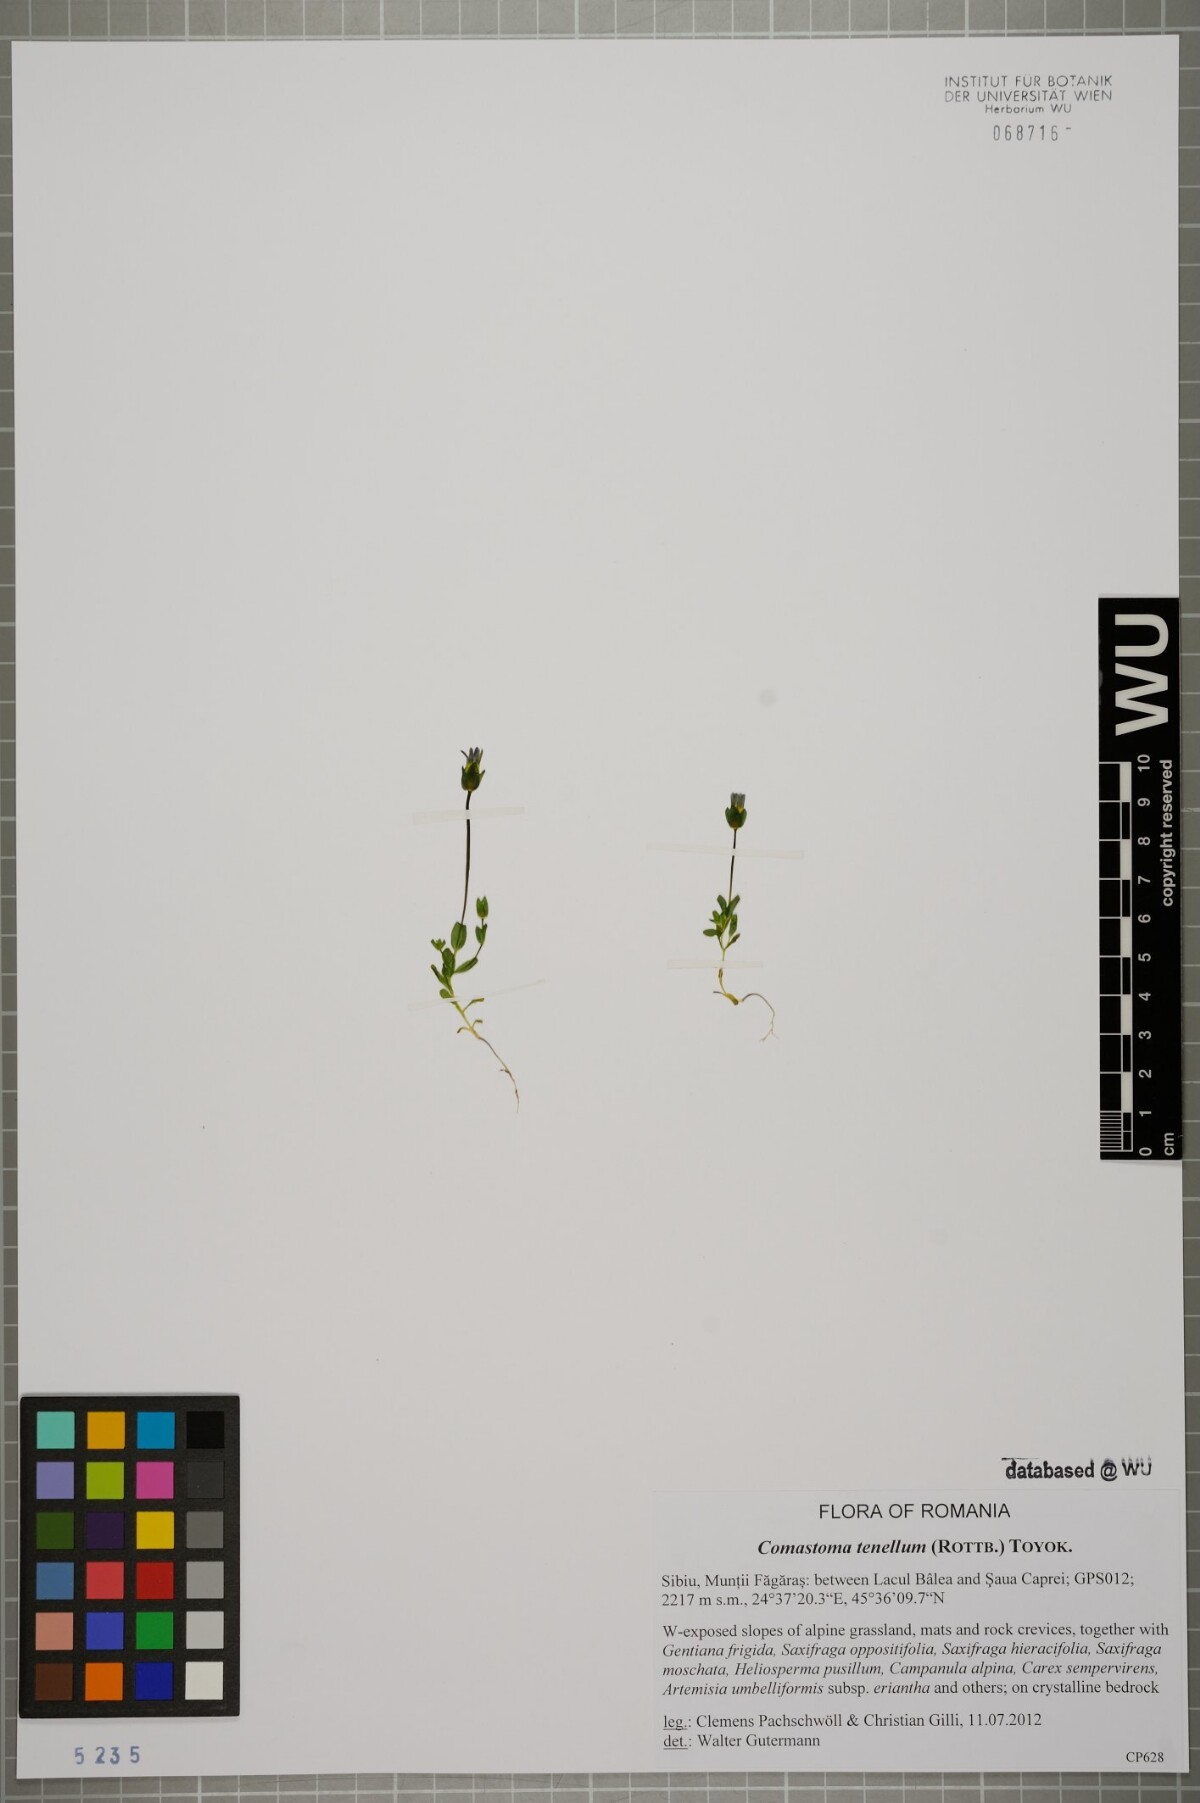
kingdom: Plantae
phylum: Tracheophyta
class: Magnoliopsida
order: Gentianales
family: Gentianaceae
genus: Comastoma
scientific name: Comastoma tenellum
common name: Dane's dwarf gentian
